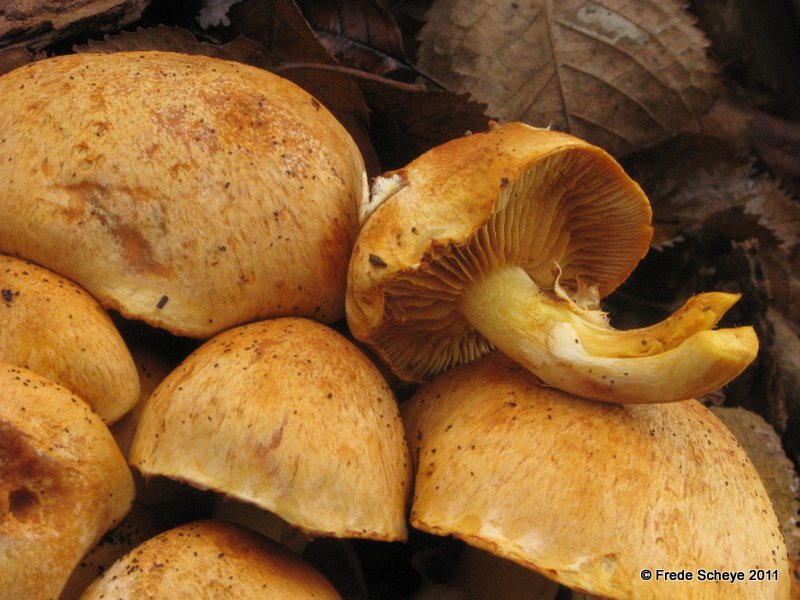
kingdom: Fungi
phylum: Basidiomycota
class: Agaricomycetes
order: Agaricales
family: Hymenogastraceae
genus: Gymnopilus
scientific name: Gymnopilus spectabilis
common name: fibret flammehat
